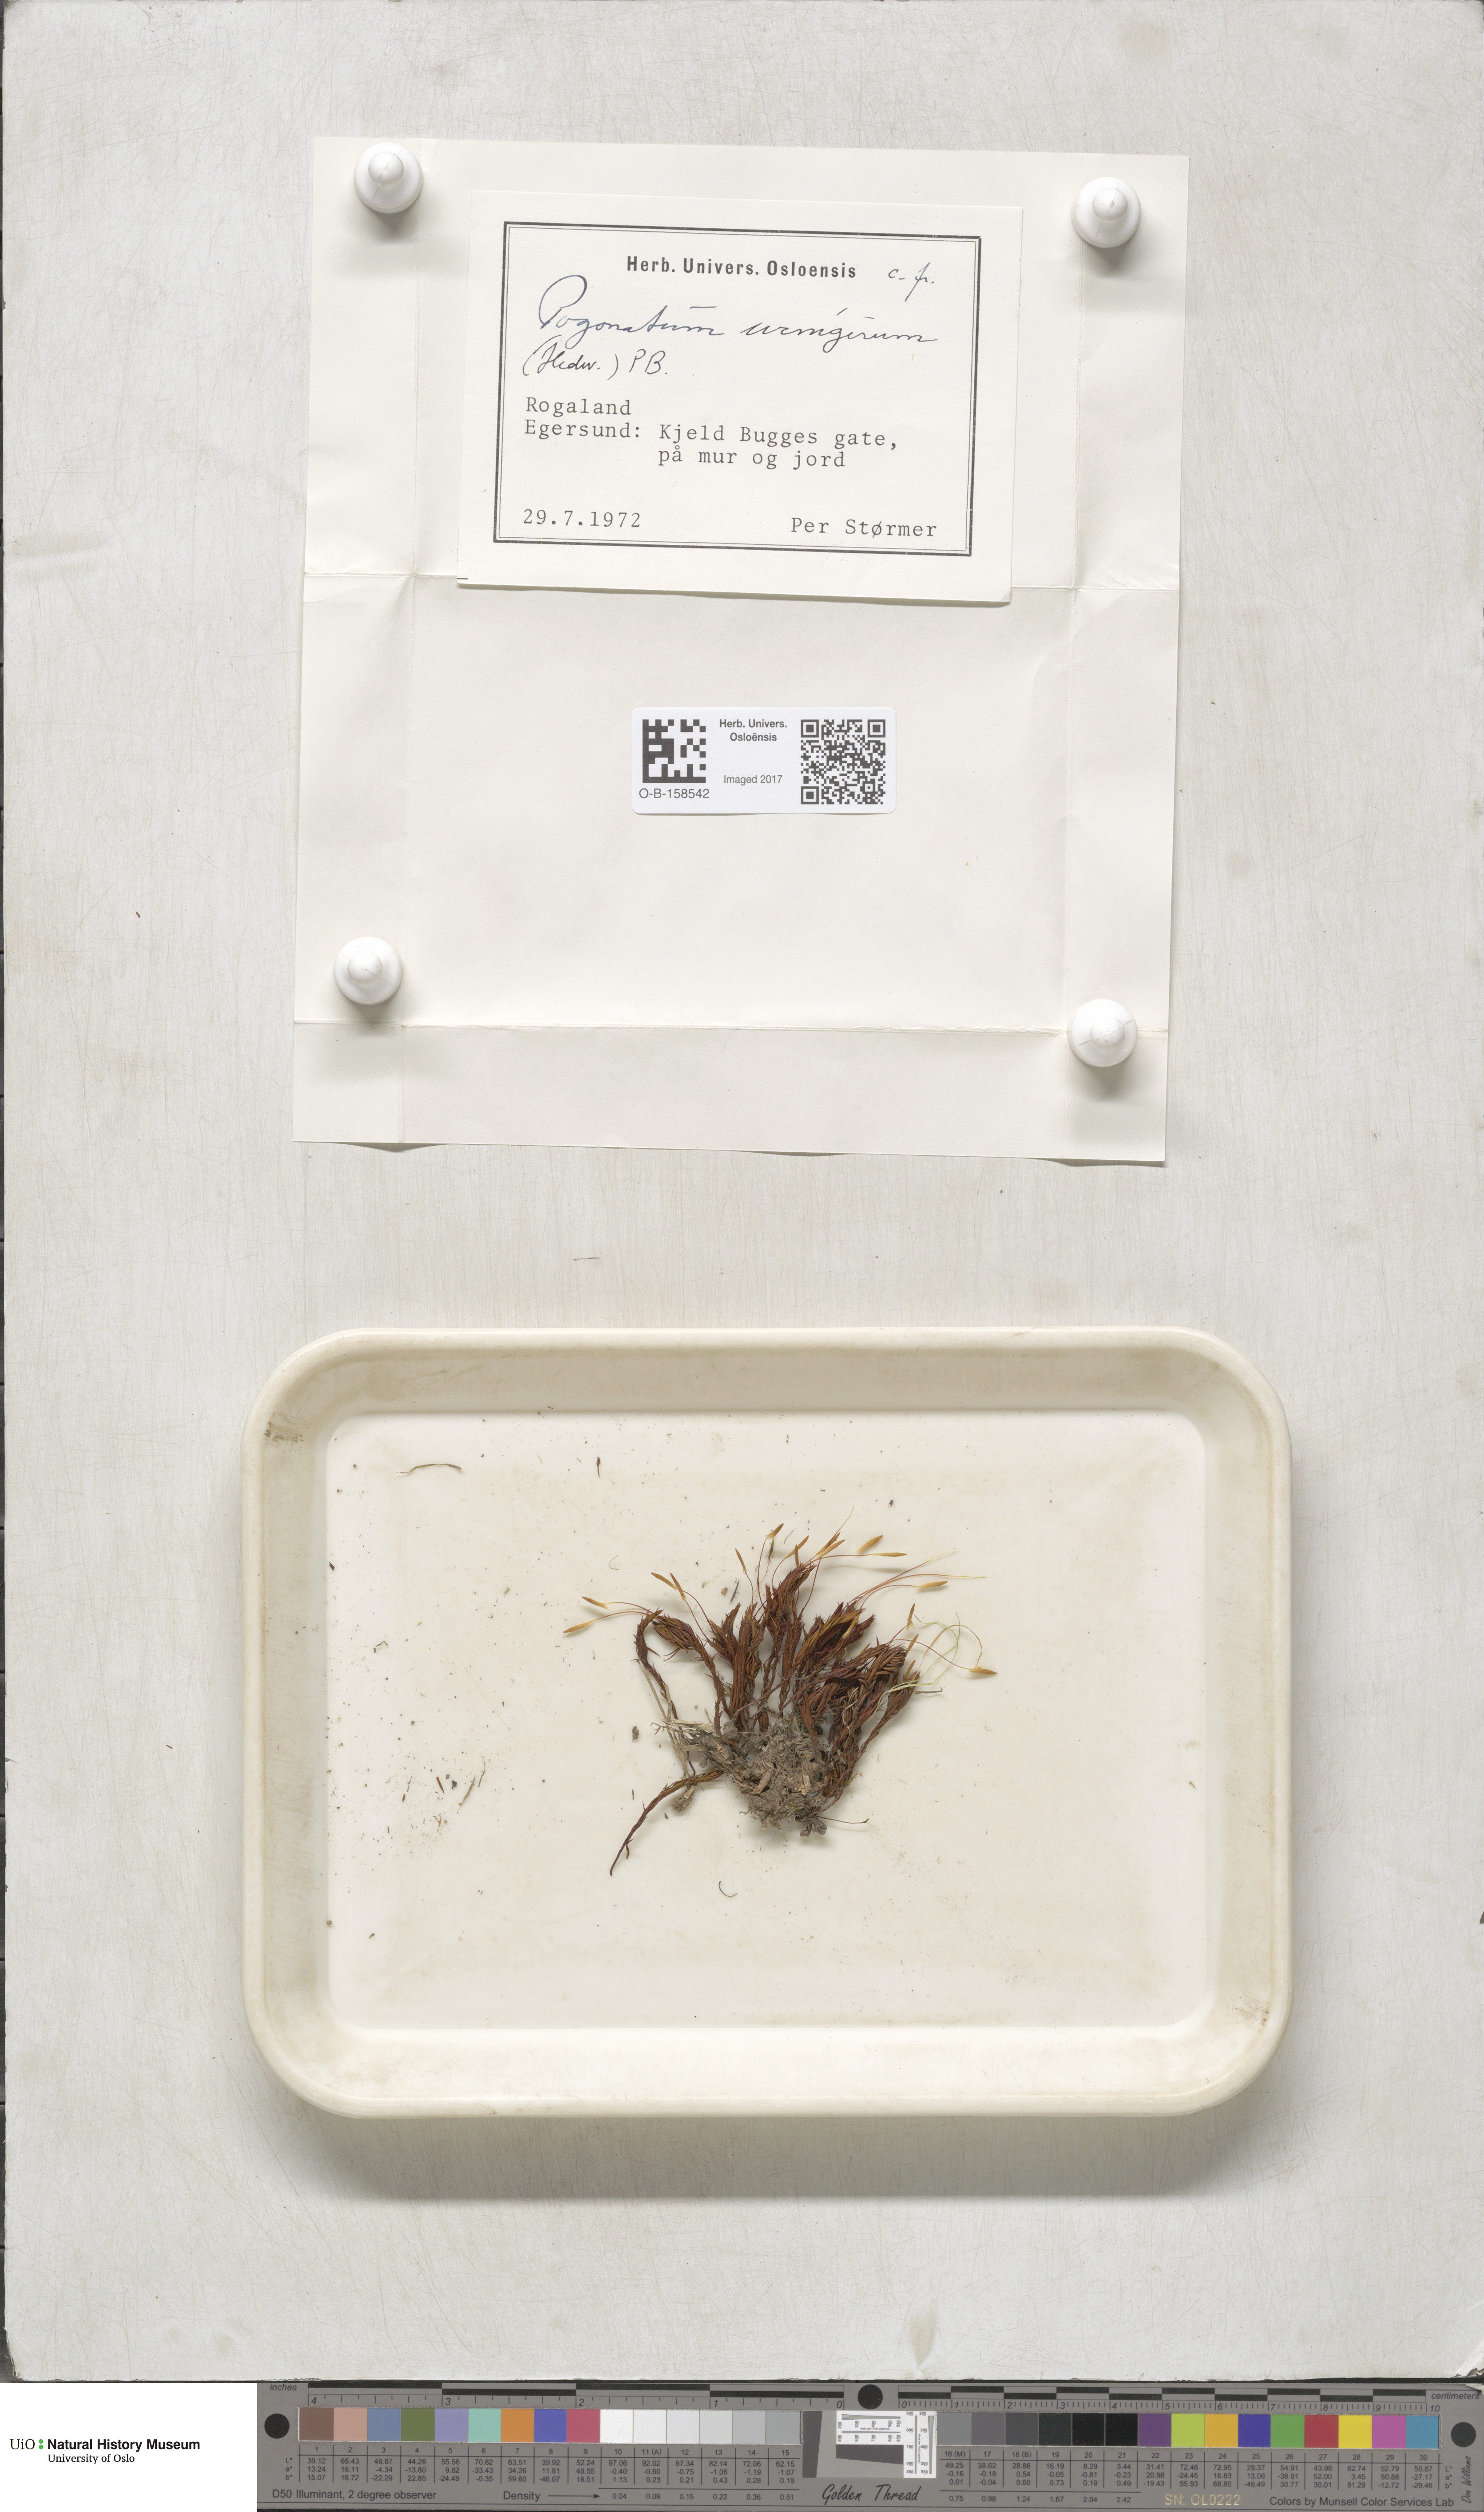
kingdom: Plantae
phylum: Bryophyta
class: Polytrichopsida
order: Polytrichales
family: Polytrichaceae
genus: Pogonatum
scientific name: Pogonatum urnigerum
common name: Urn hair moss
